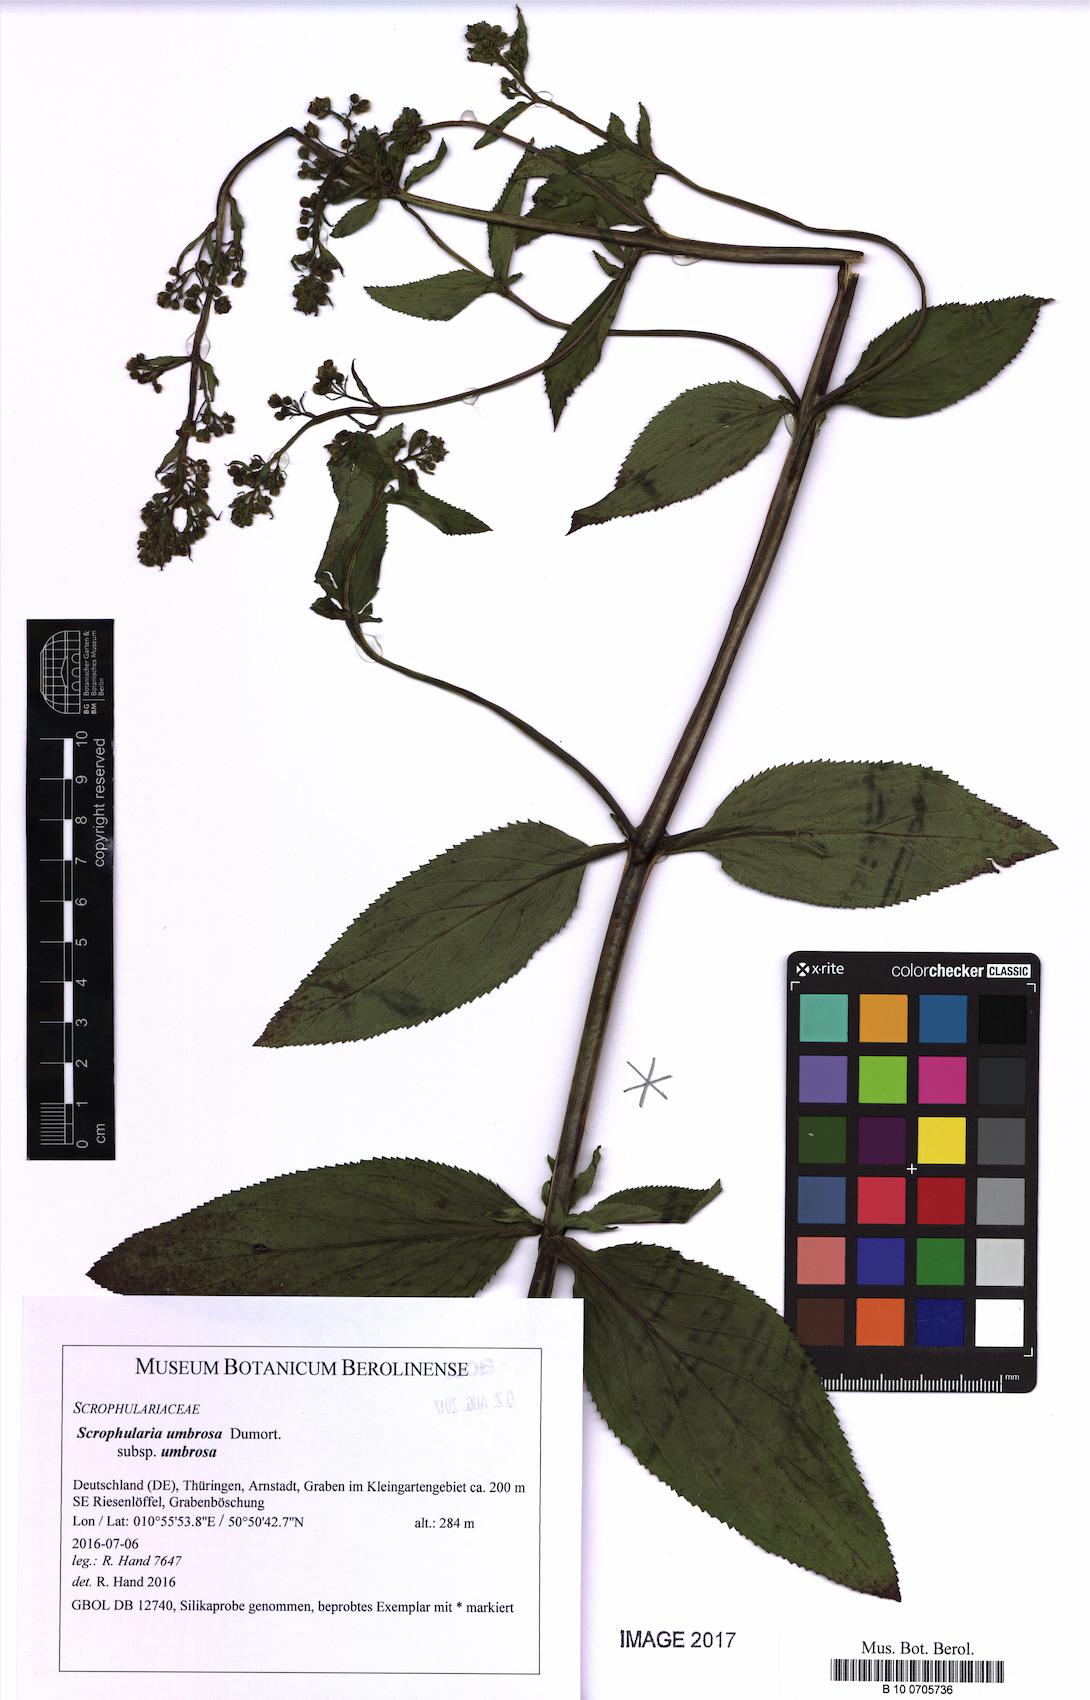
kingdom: Plantae
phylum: Tracheophyta
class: Magnoliopsida
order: Lamiales
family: Scrophulariaceae
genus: Scrophularia
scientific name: Scrophularia umbrosa
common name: Green figwort
